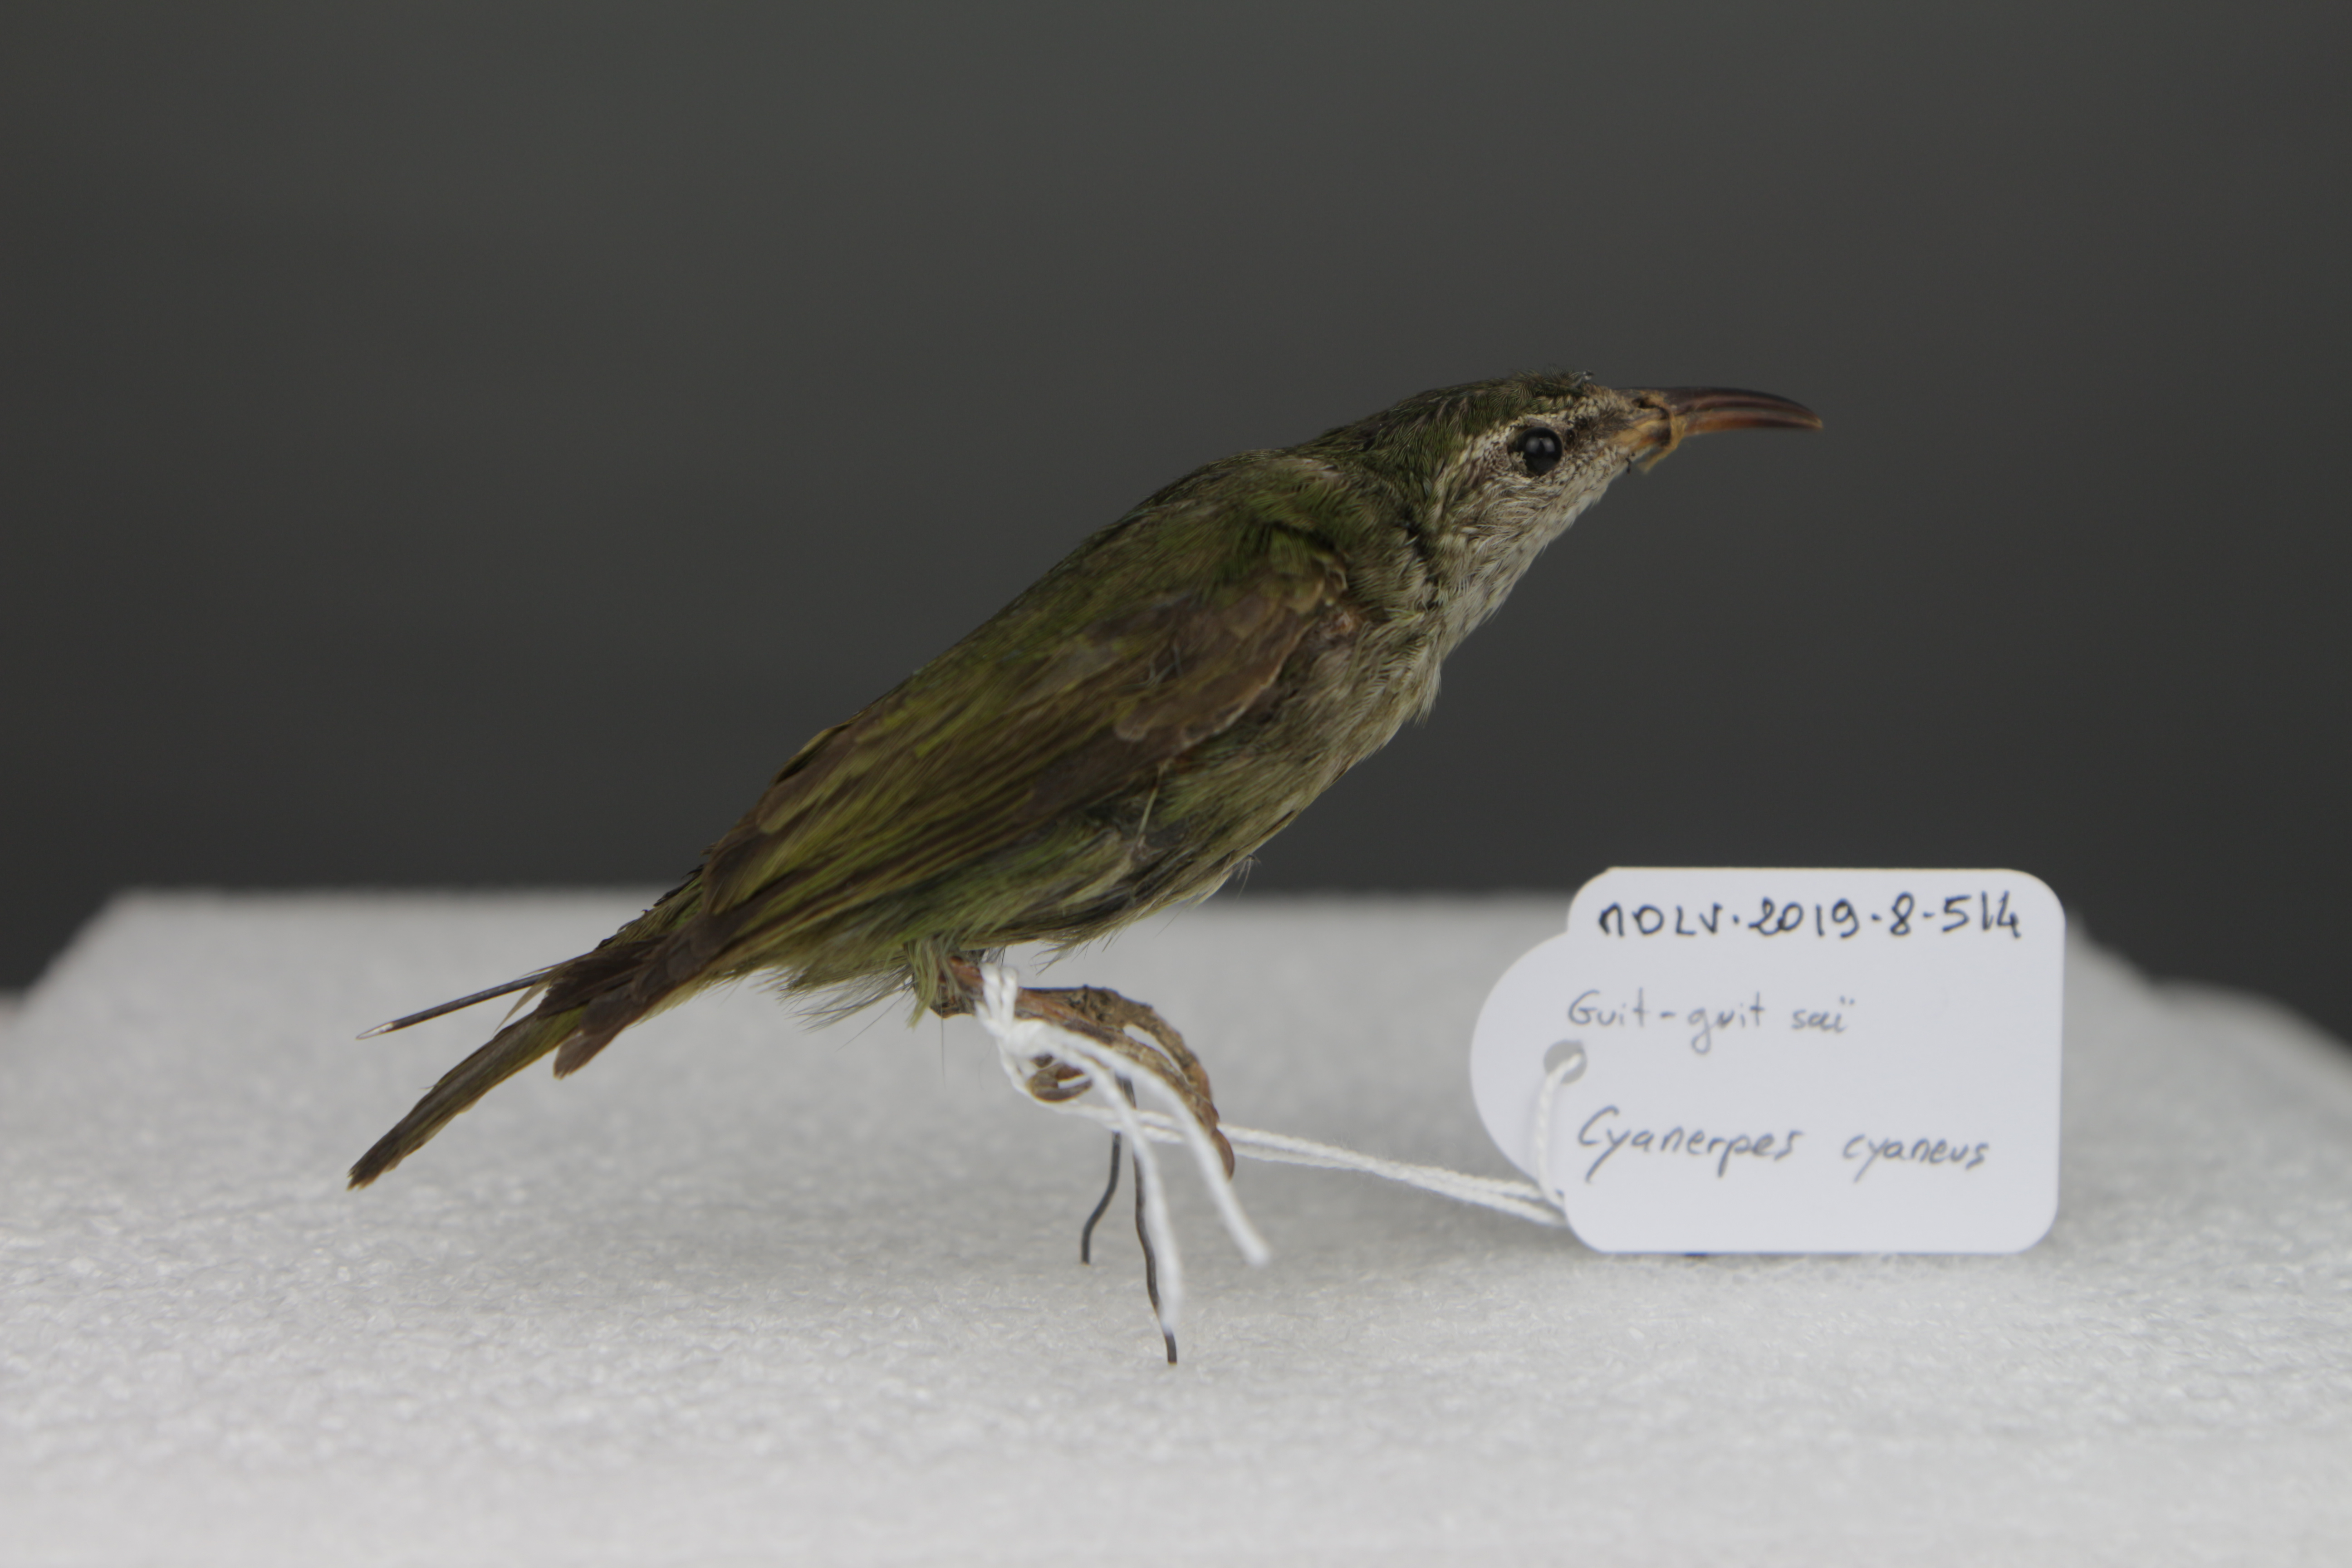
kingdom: Animalia
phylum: Chordata
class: Aves
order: Passeriformes
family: Thraupidae
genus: Cyanerpes
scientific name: Cyanerpes cyaneus
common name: Red-legged honeycreeper
